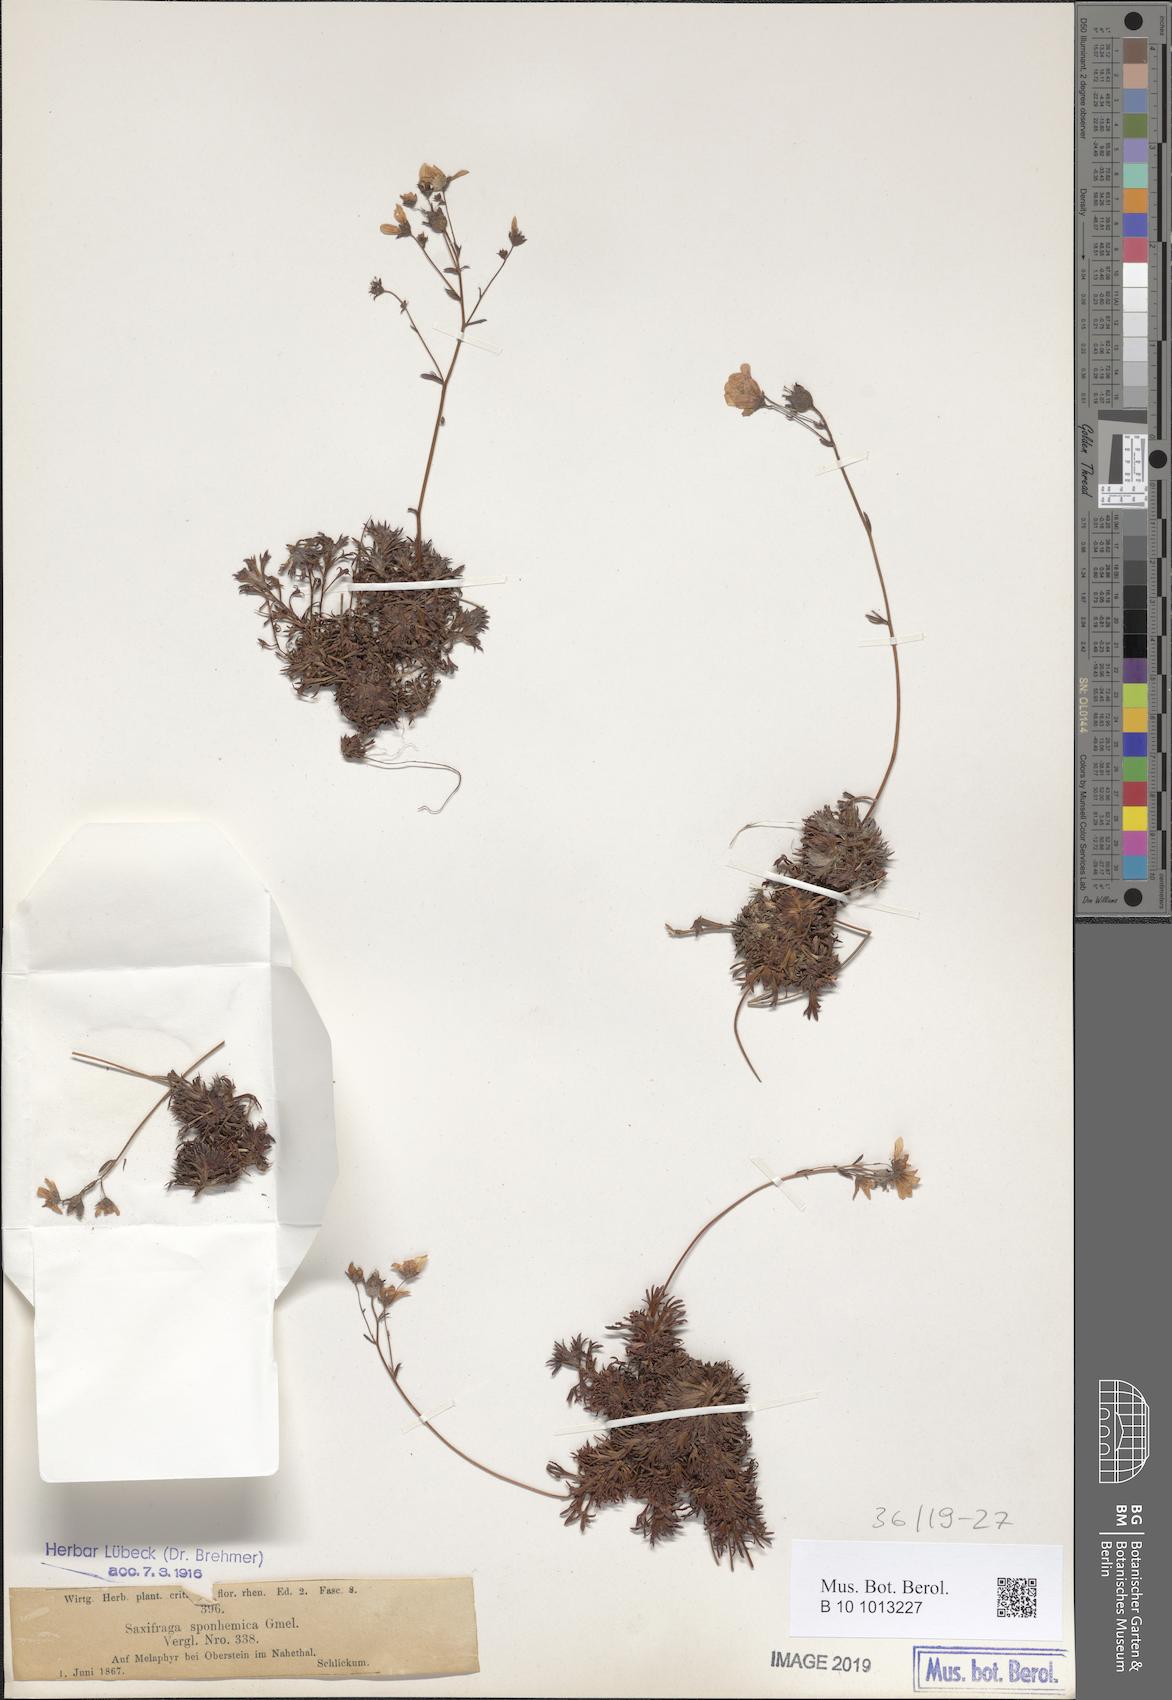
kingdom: Plantae
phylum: Tracheophyta
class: Magnoliopsida
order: Saxifragales
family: Saxifragaceae
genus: Saxifraga
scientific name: Saxifraga rosacea
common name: Irish saxifrage
